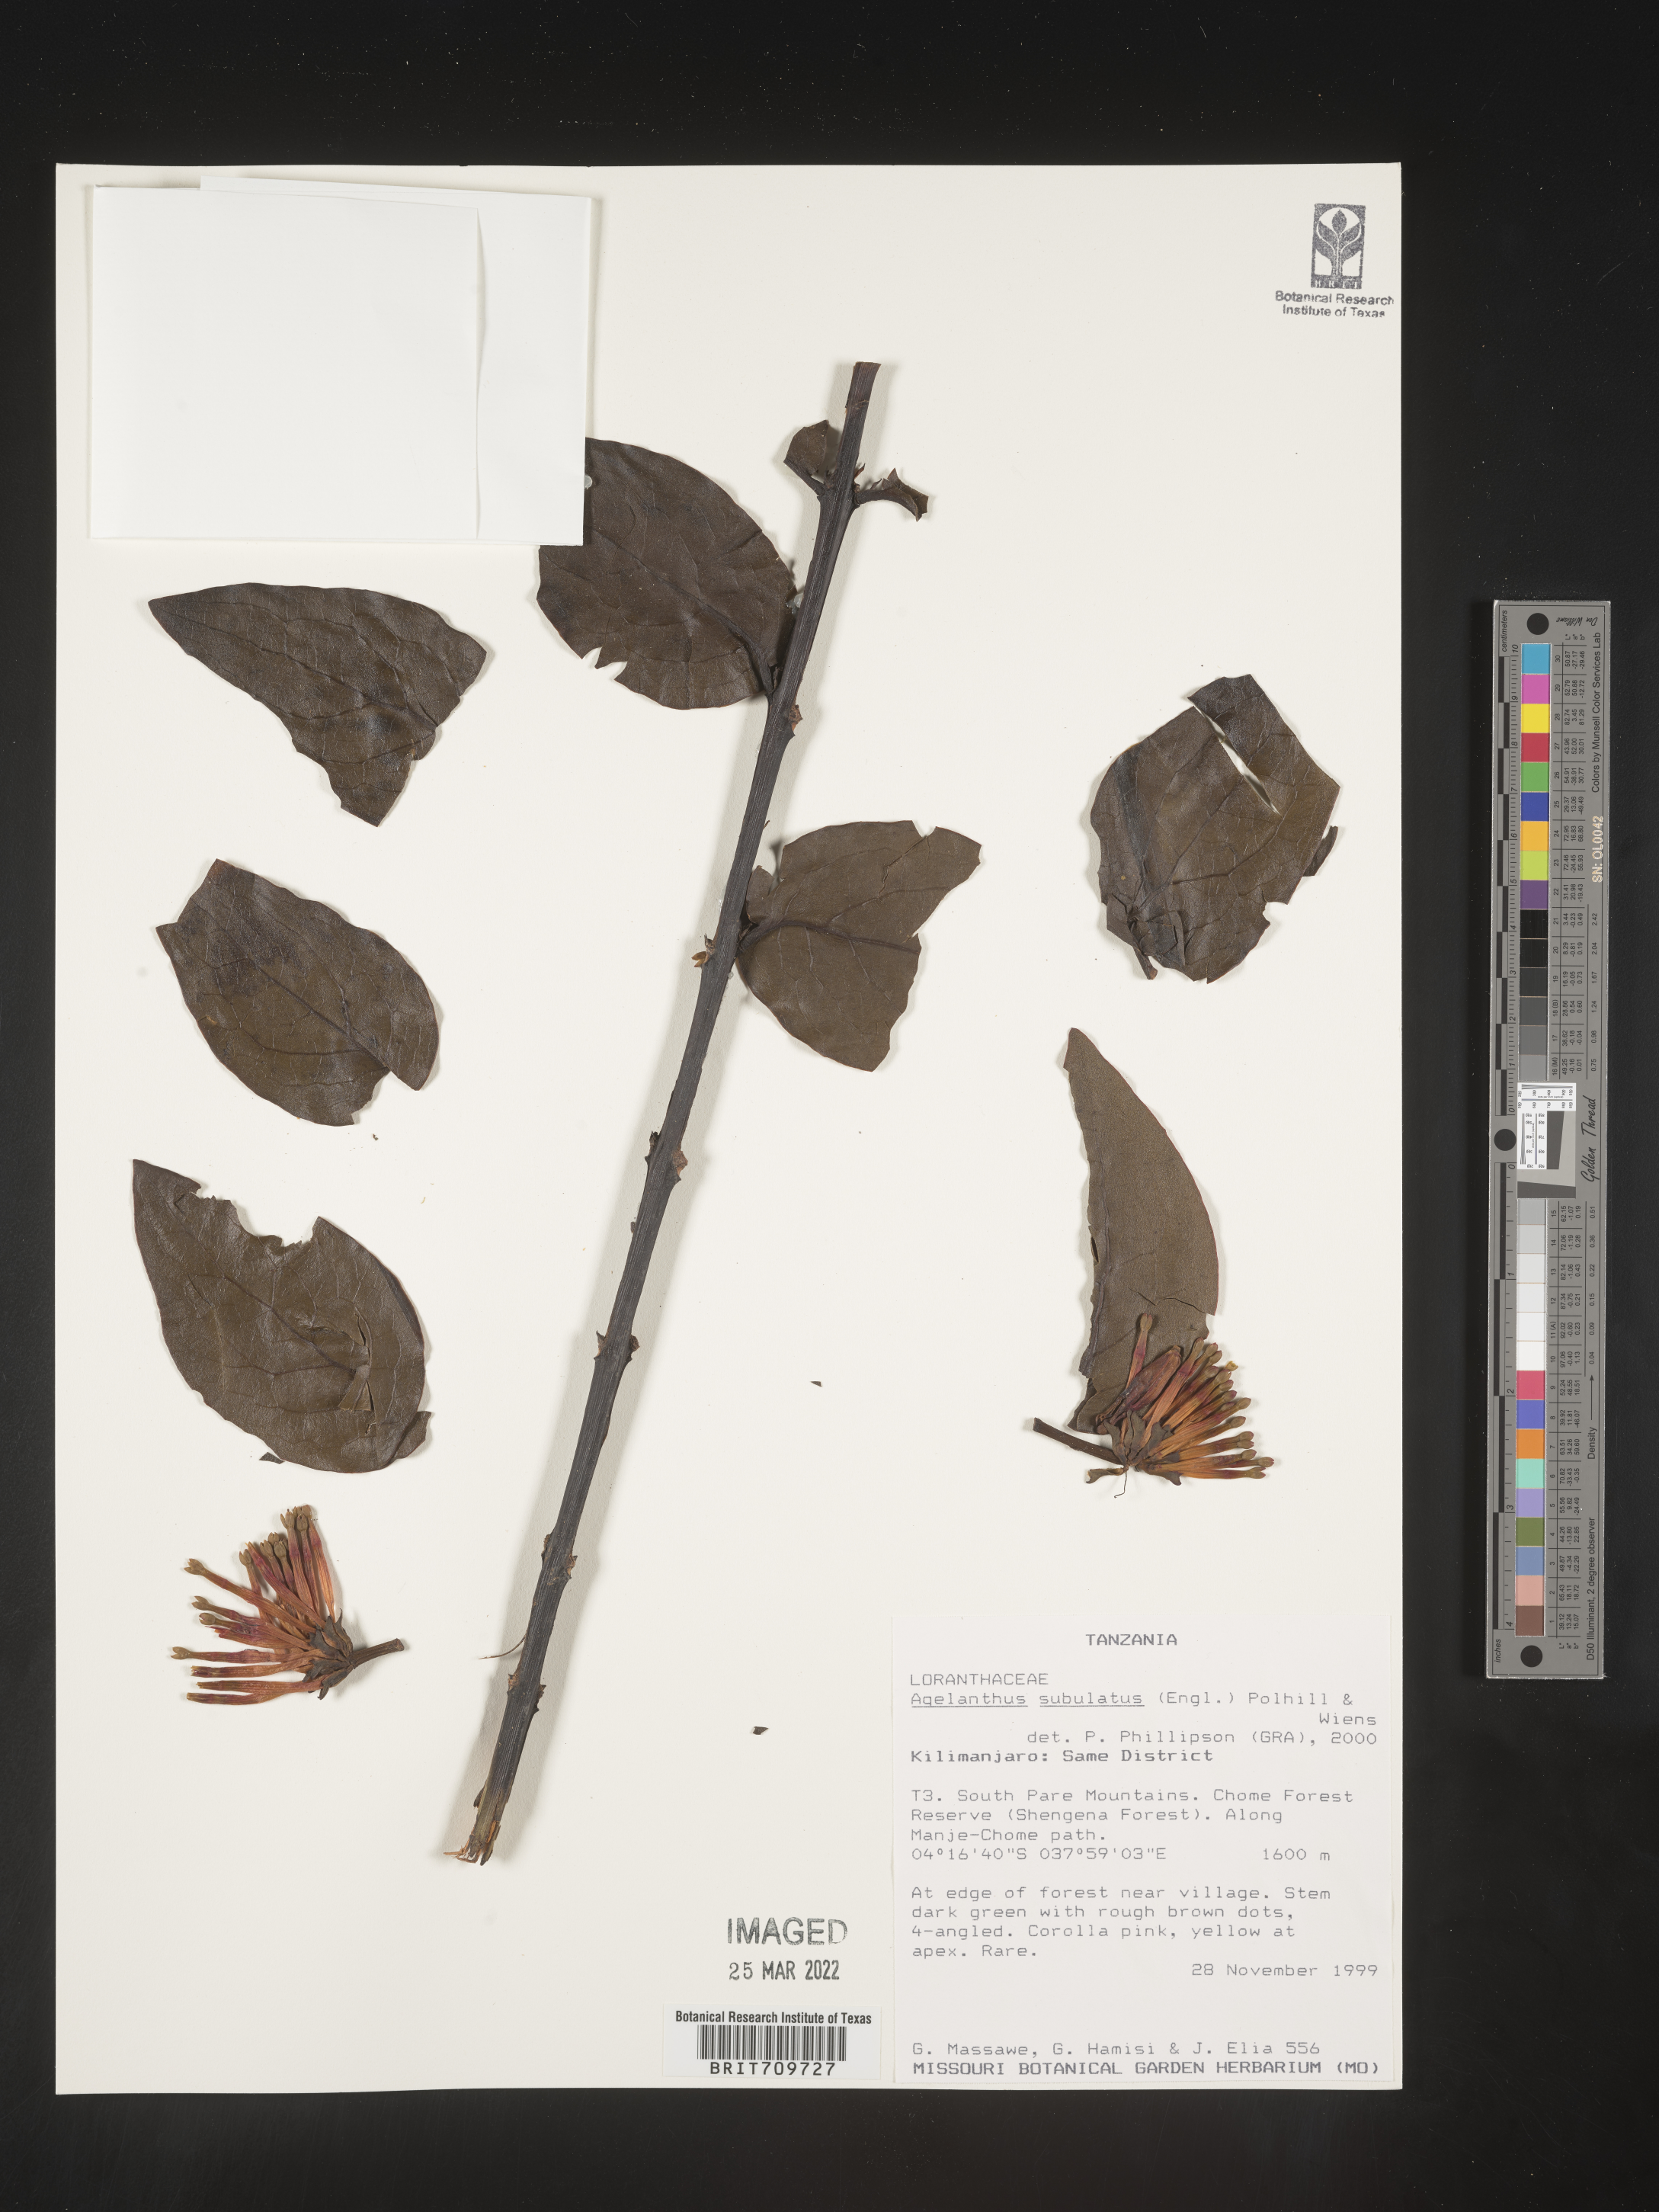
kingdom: Plantae
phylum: Tracheophyta
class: Magnoliopsida
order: Santalales
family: Loranthaceae
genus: Agelanthus
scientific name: Agelanthus
